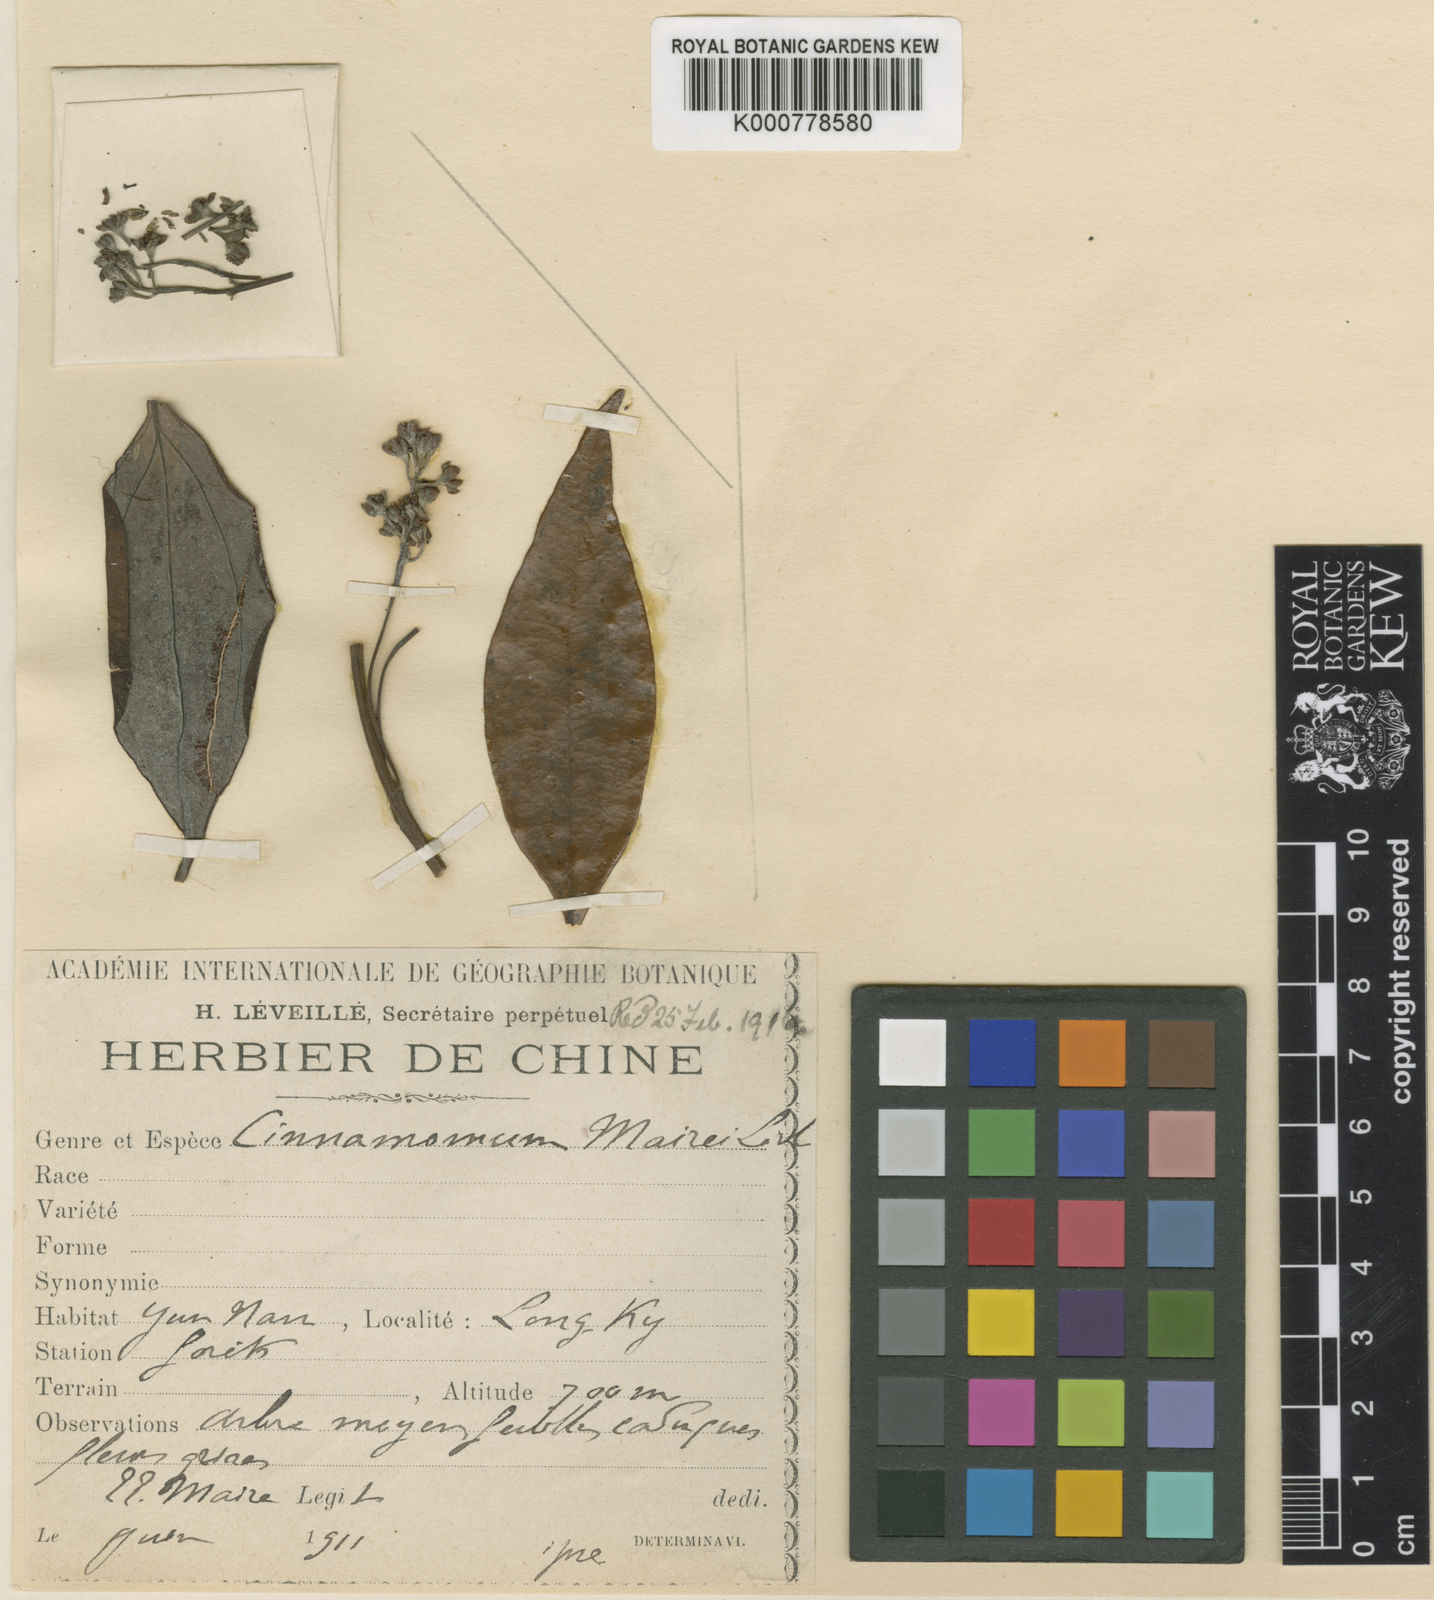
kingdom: Plantae
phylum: Tracheophyta
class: Magnoliopsida
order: Laurales
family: Lauraceae
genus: Cinnamomum
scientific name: Cinnamomum
